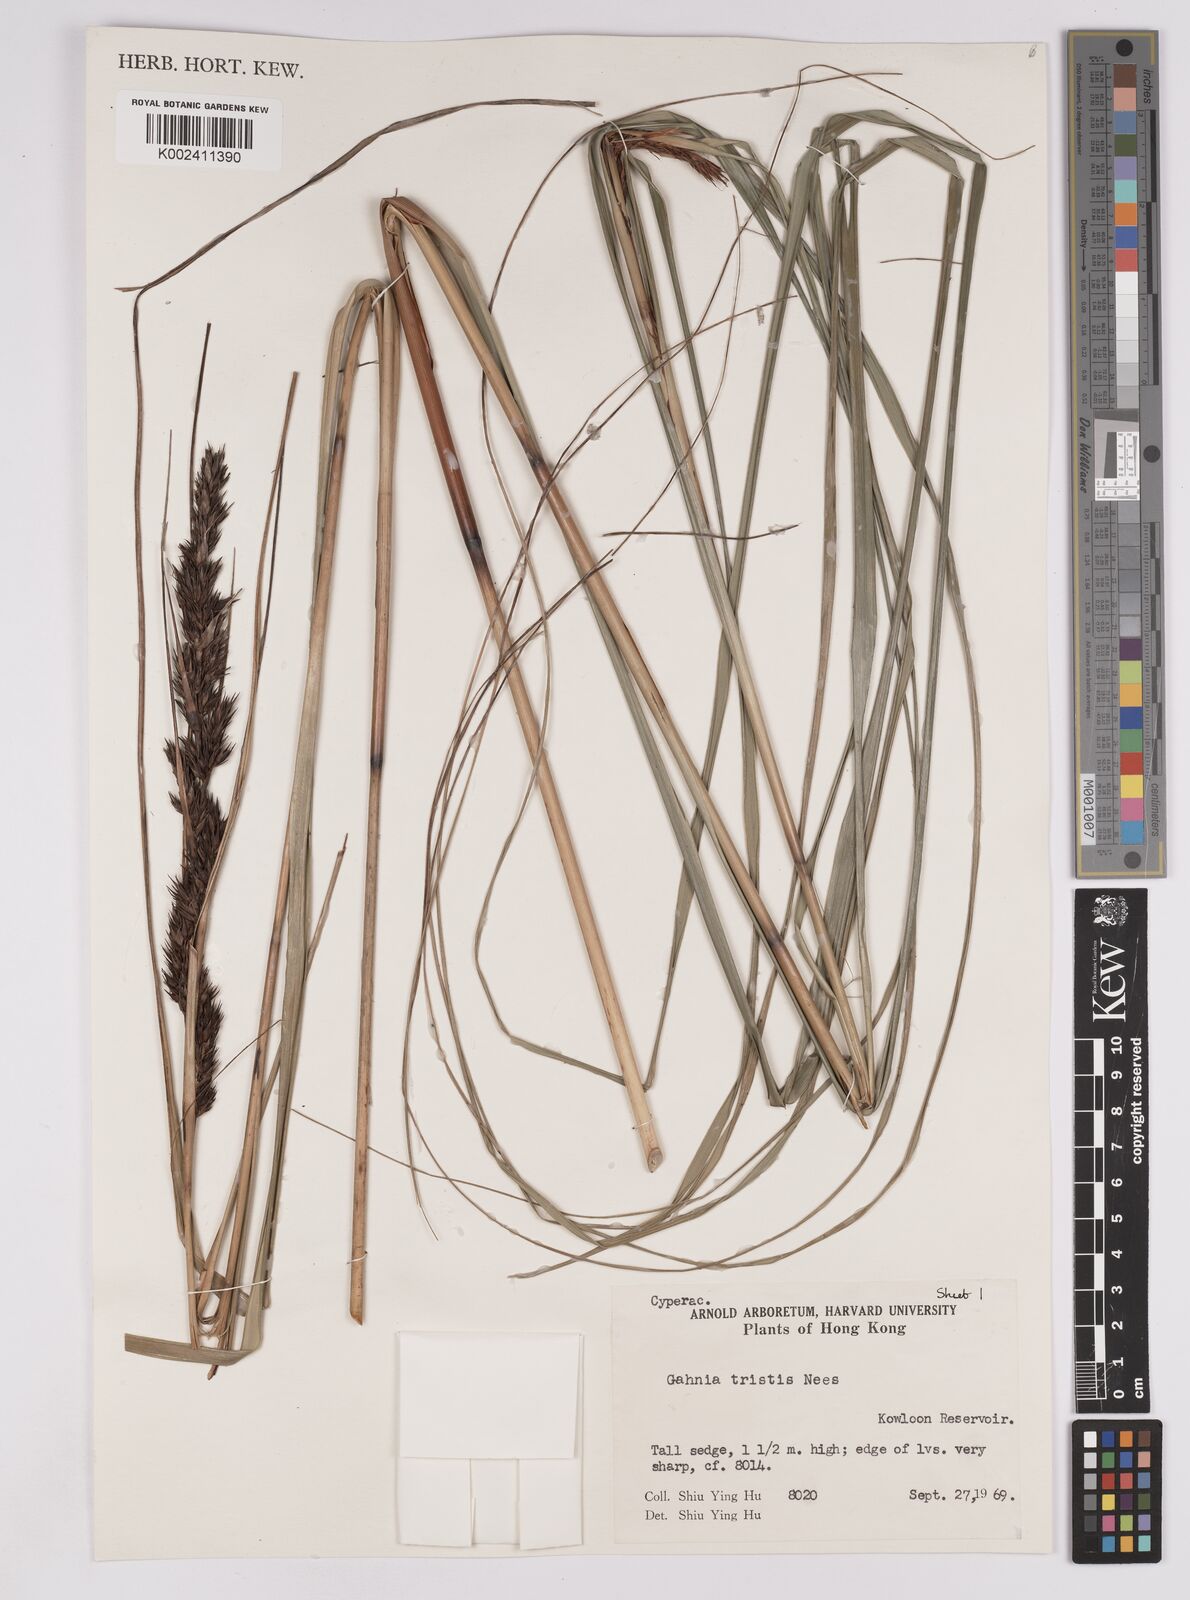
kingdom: Plantae
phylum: Tracheophyta
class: Liliopsida
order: Poales
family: Cyperaceae
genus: Gahnia
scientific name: Gahnia tristis
